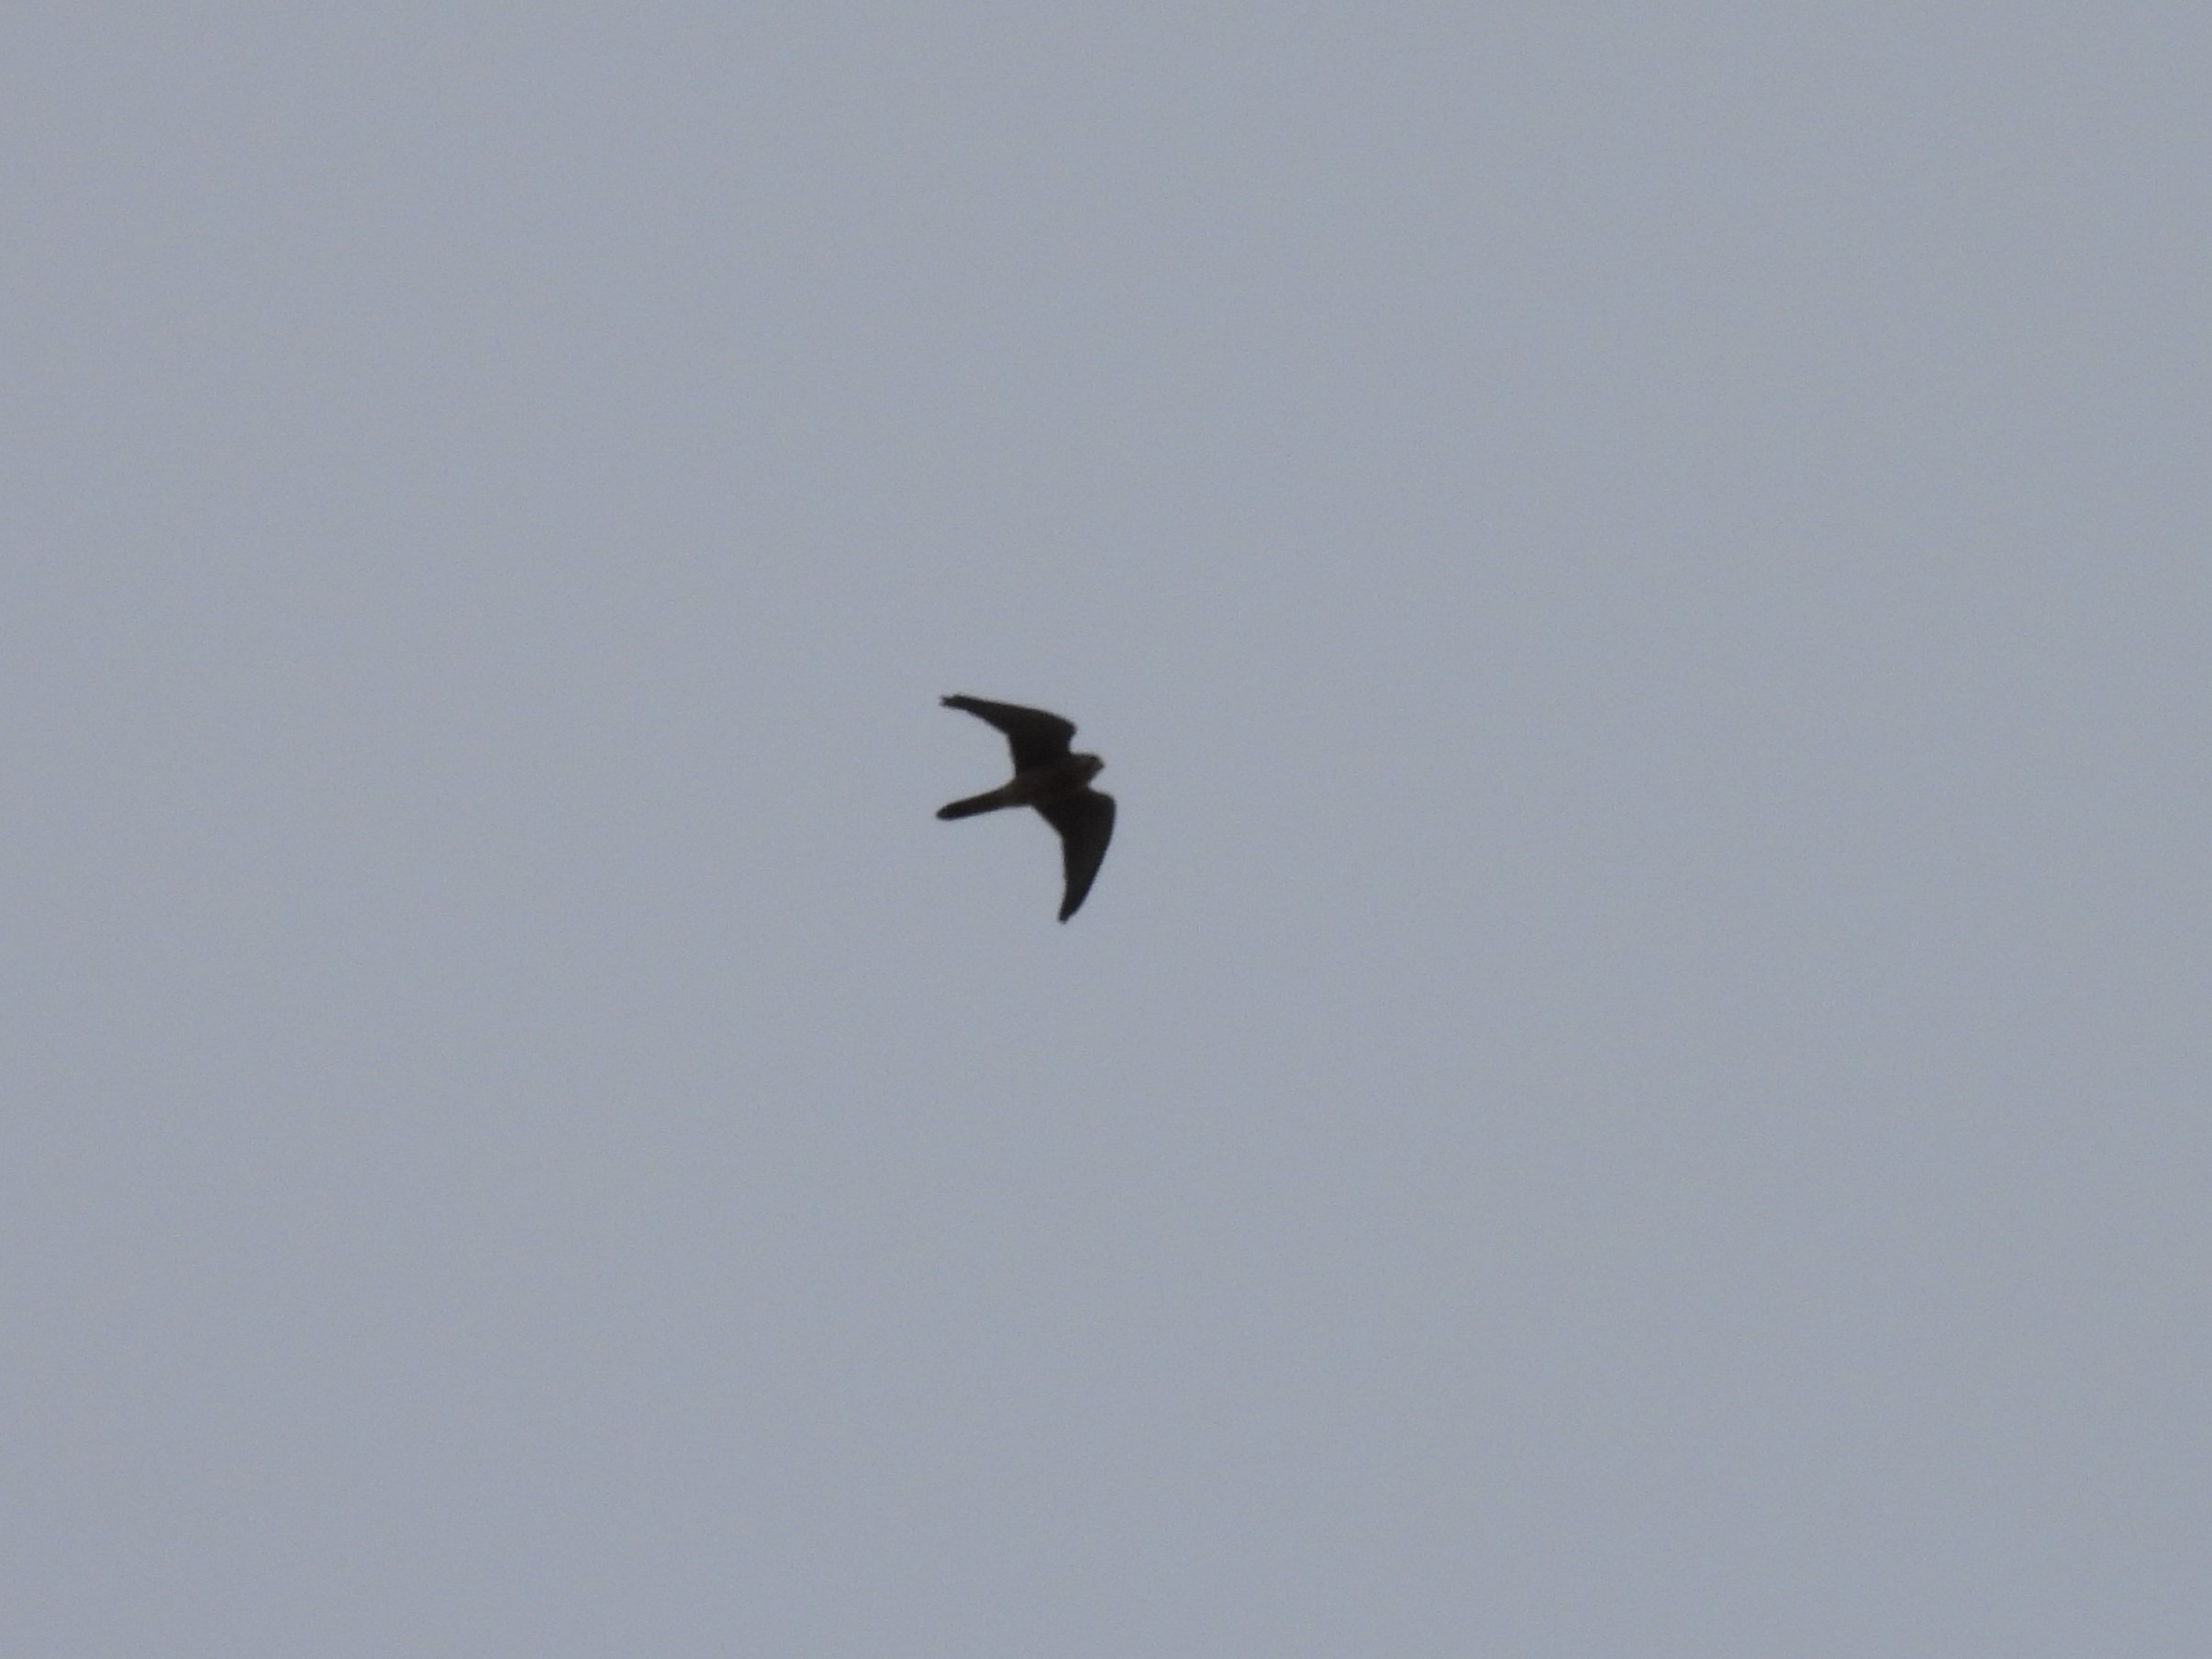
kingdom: Animalia
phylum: Chordata
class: Aves
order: Falconiformes
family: Falconidae
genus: Falco
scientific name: Falco tinnunculus
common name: Tårnfalk
